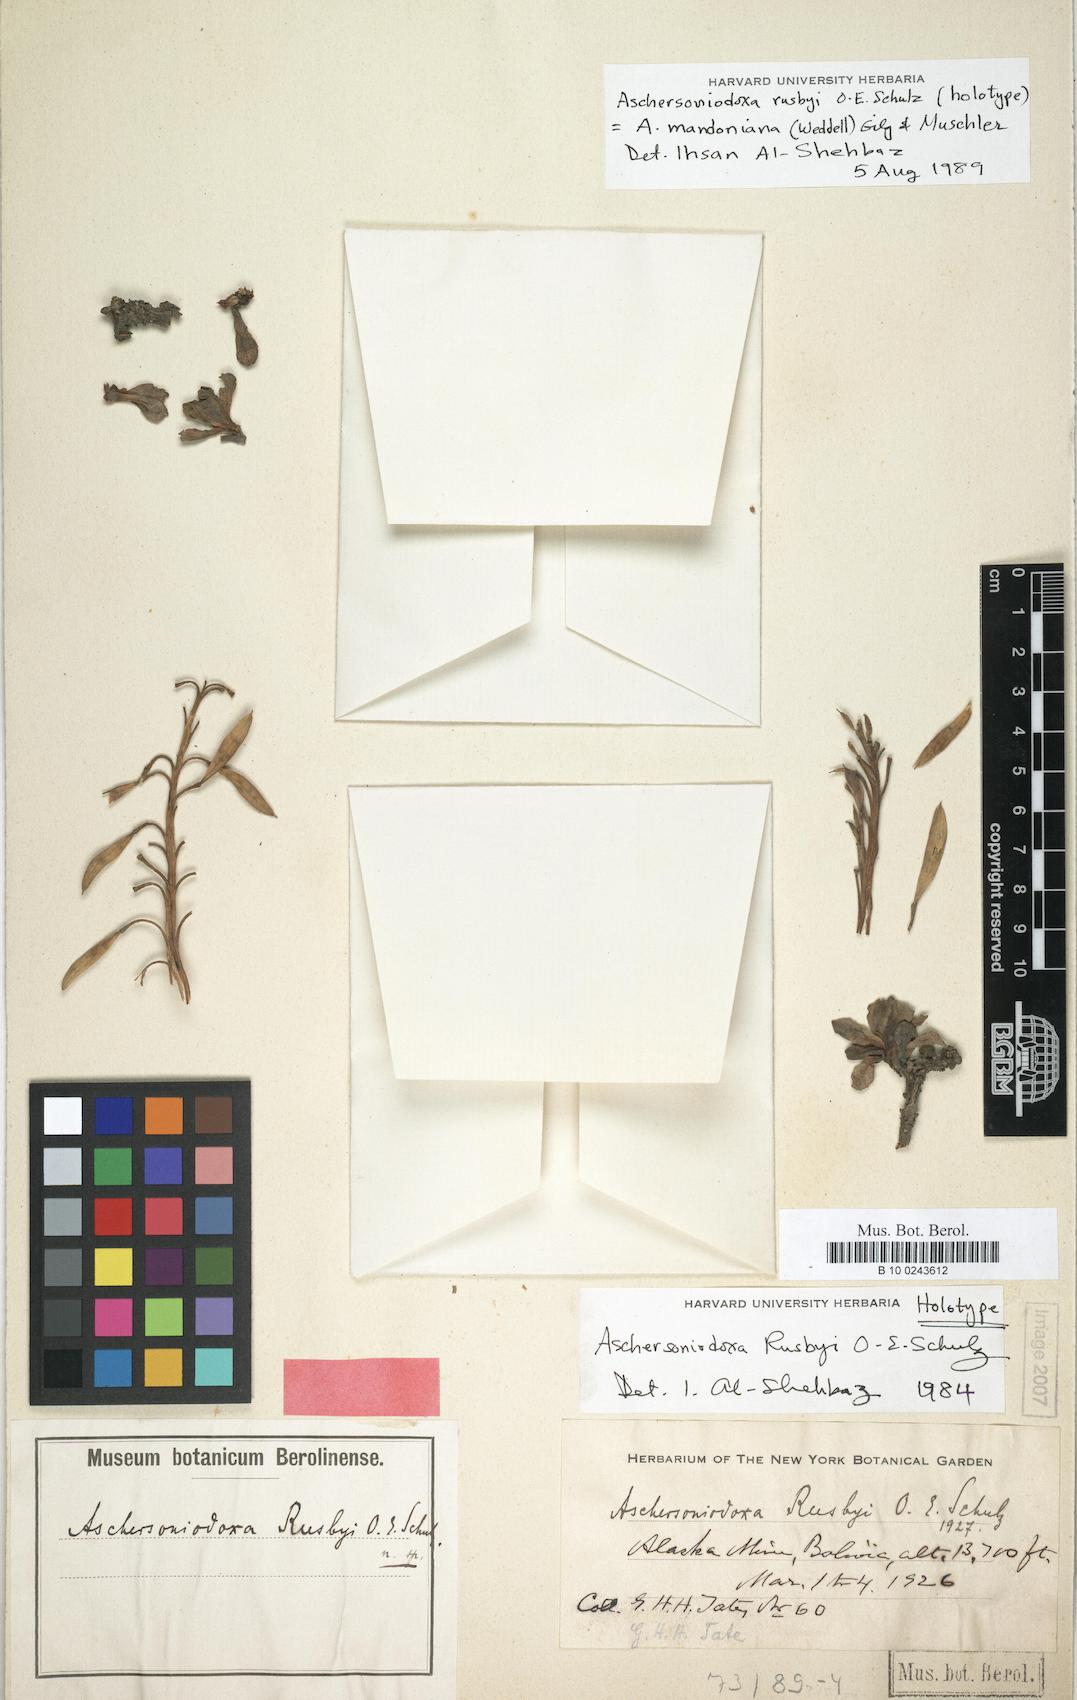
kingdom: Plantae
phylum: Tracheophyta
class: Magnoliopsida
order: Brassicales
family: Brassicaceae
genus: Aschersoniodoxa
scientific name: Aschersoniodoxa mandoniana
